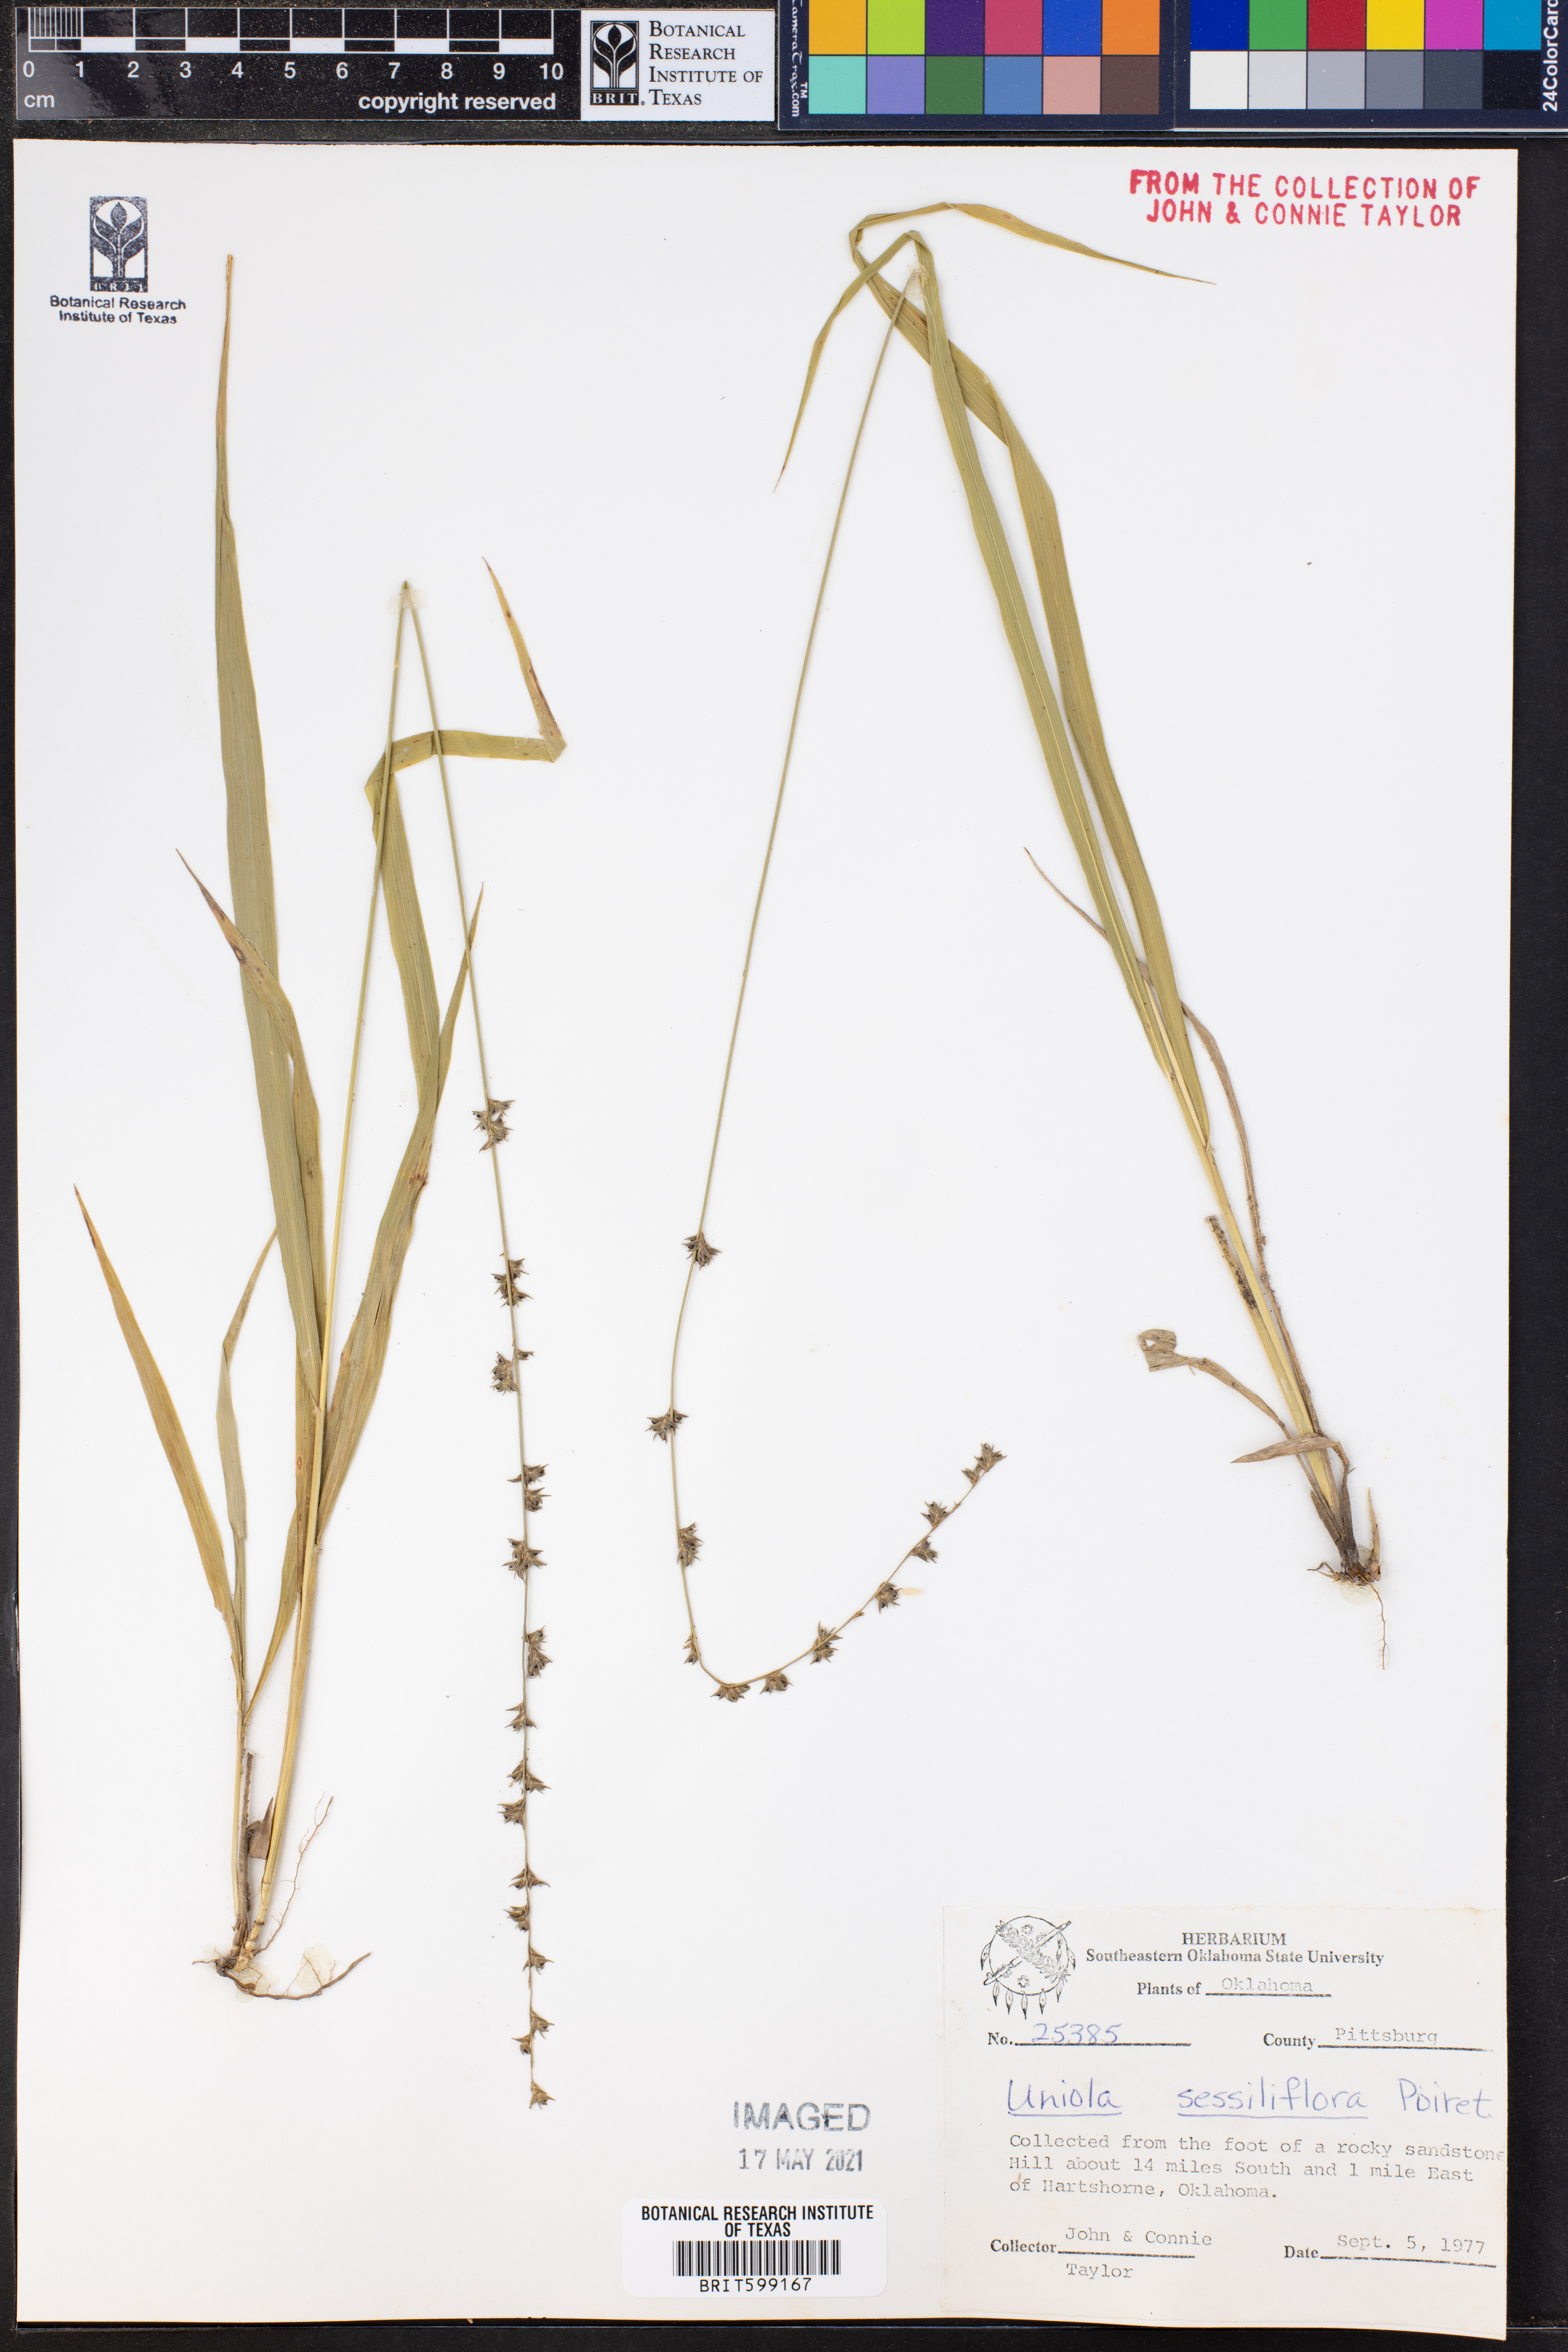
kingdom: Plantae
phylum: Tracheophyta
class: Liliopsida
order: Poales
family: Poaceae
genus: Chasmanthium
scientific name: Chasmanthium laxum
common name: Slender chasmanthium
